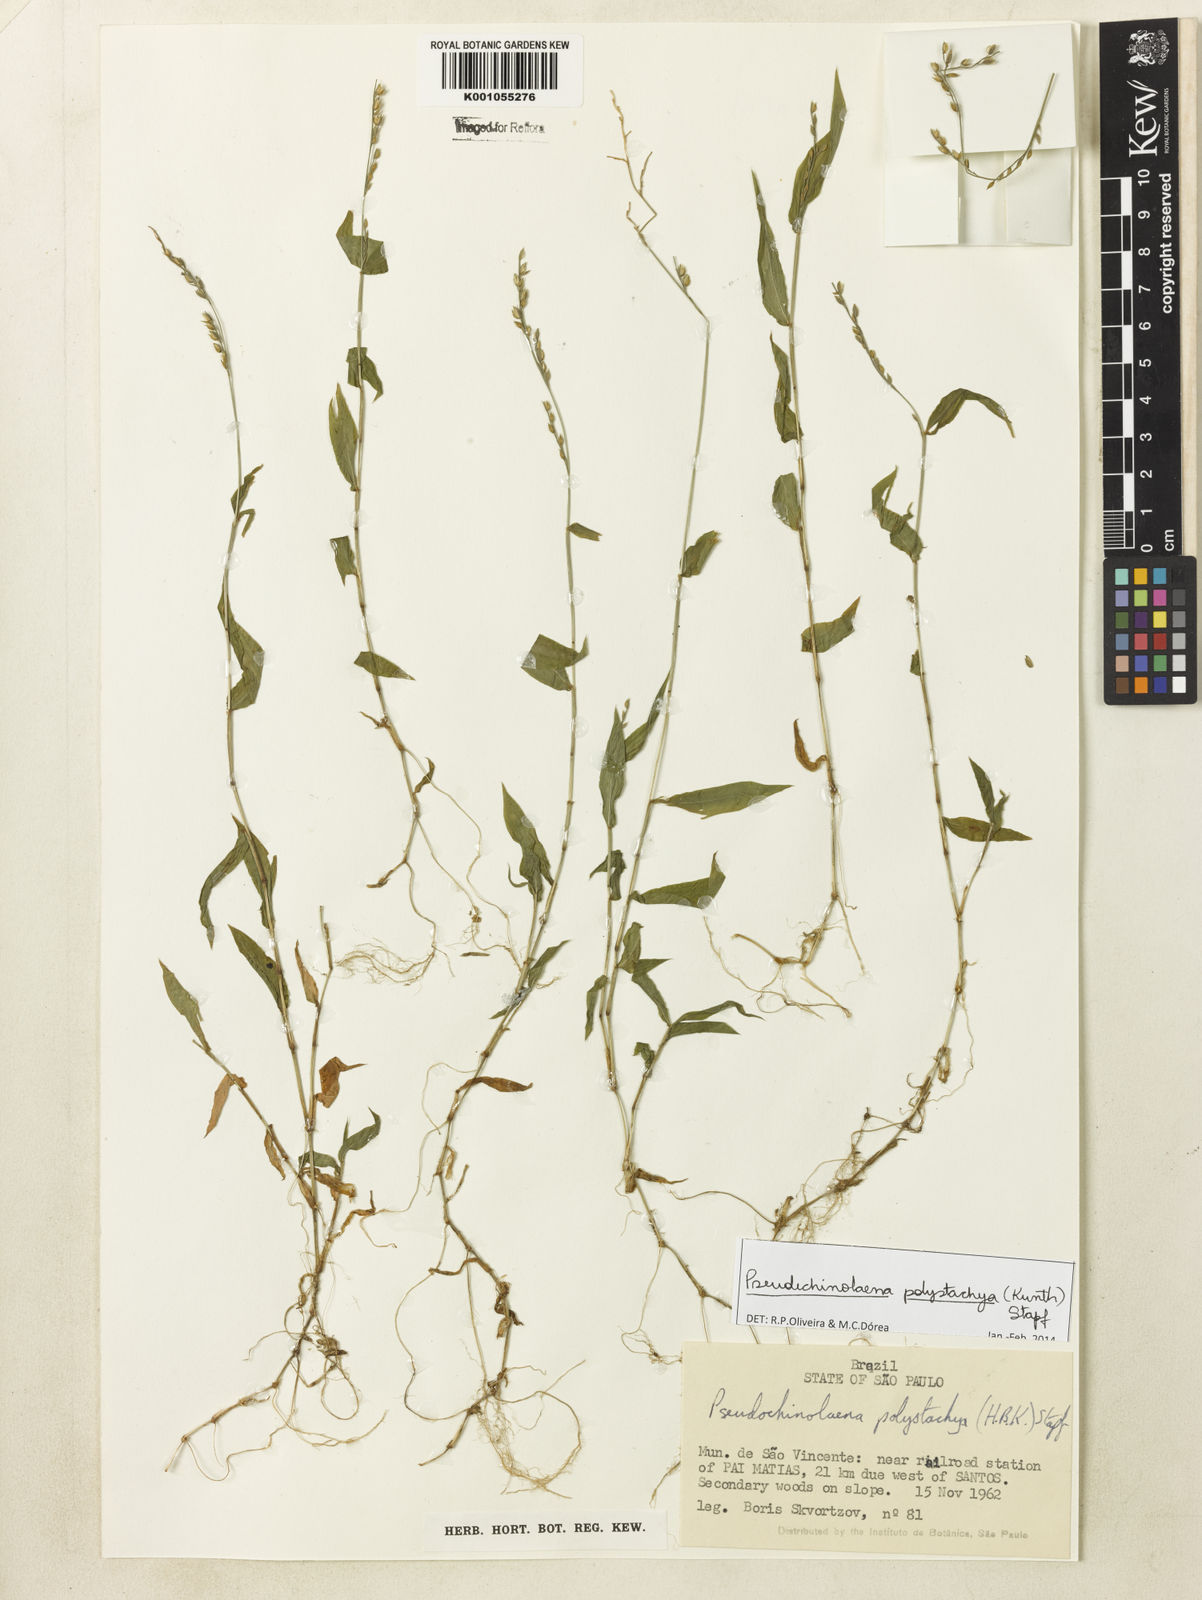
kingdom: Plantae
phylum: Tracheophyta
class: Liliopsida
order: Poales
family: Poaceae
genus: Pseudechinolaena
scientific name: Pseudechinolaena polystachya
